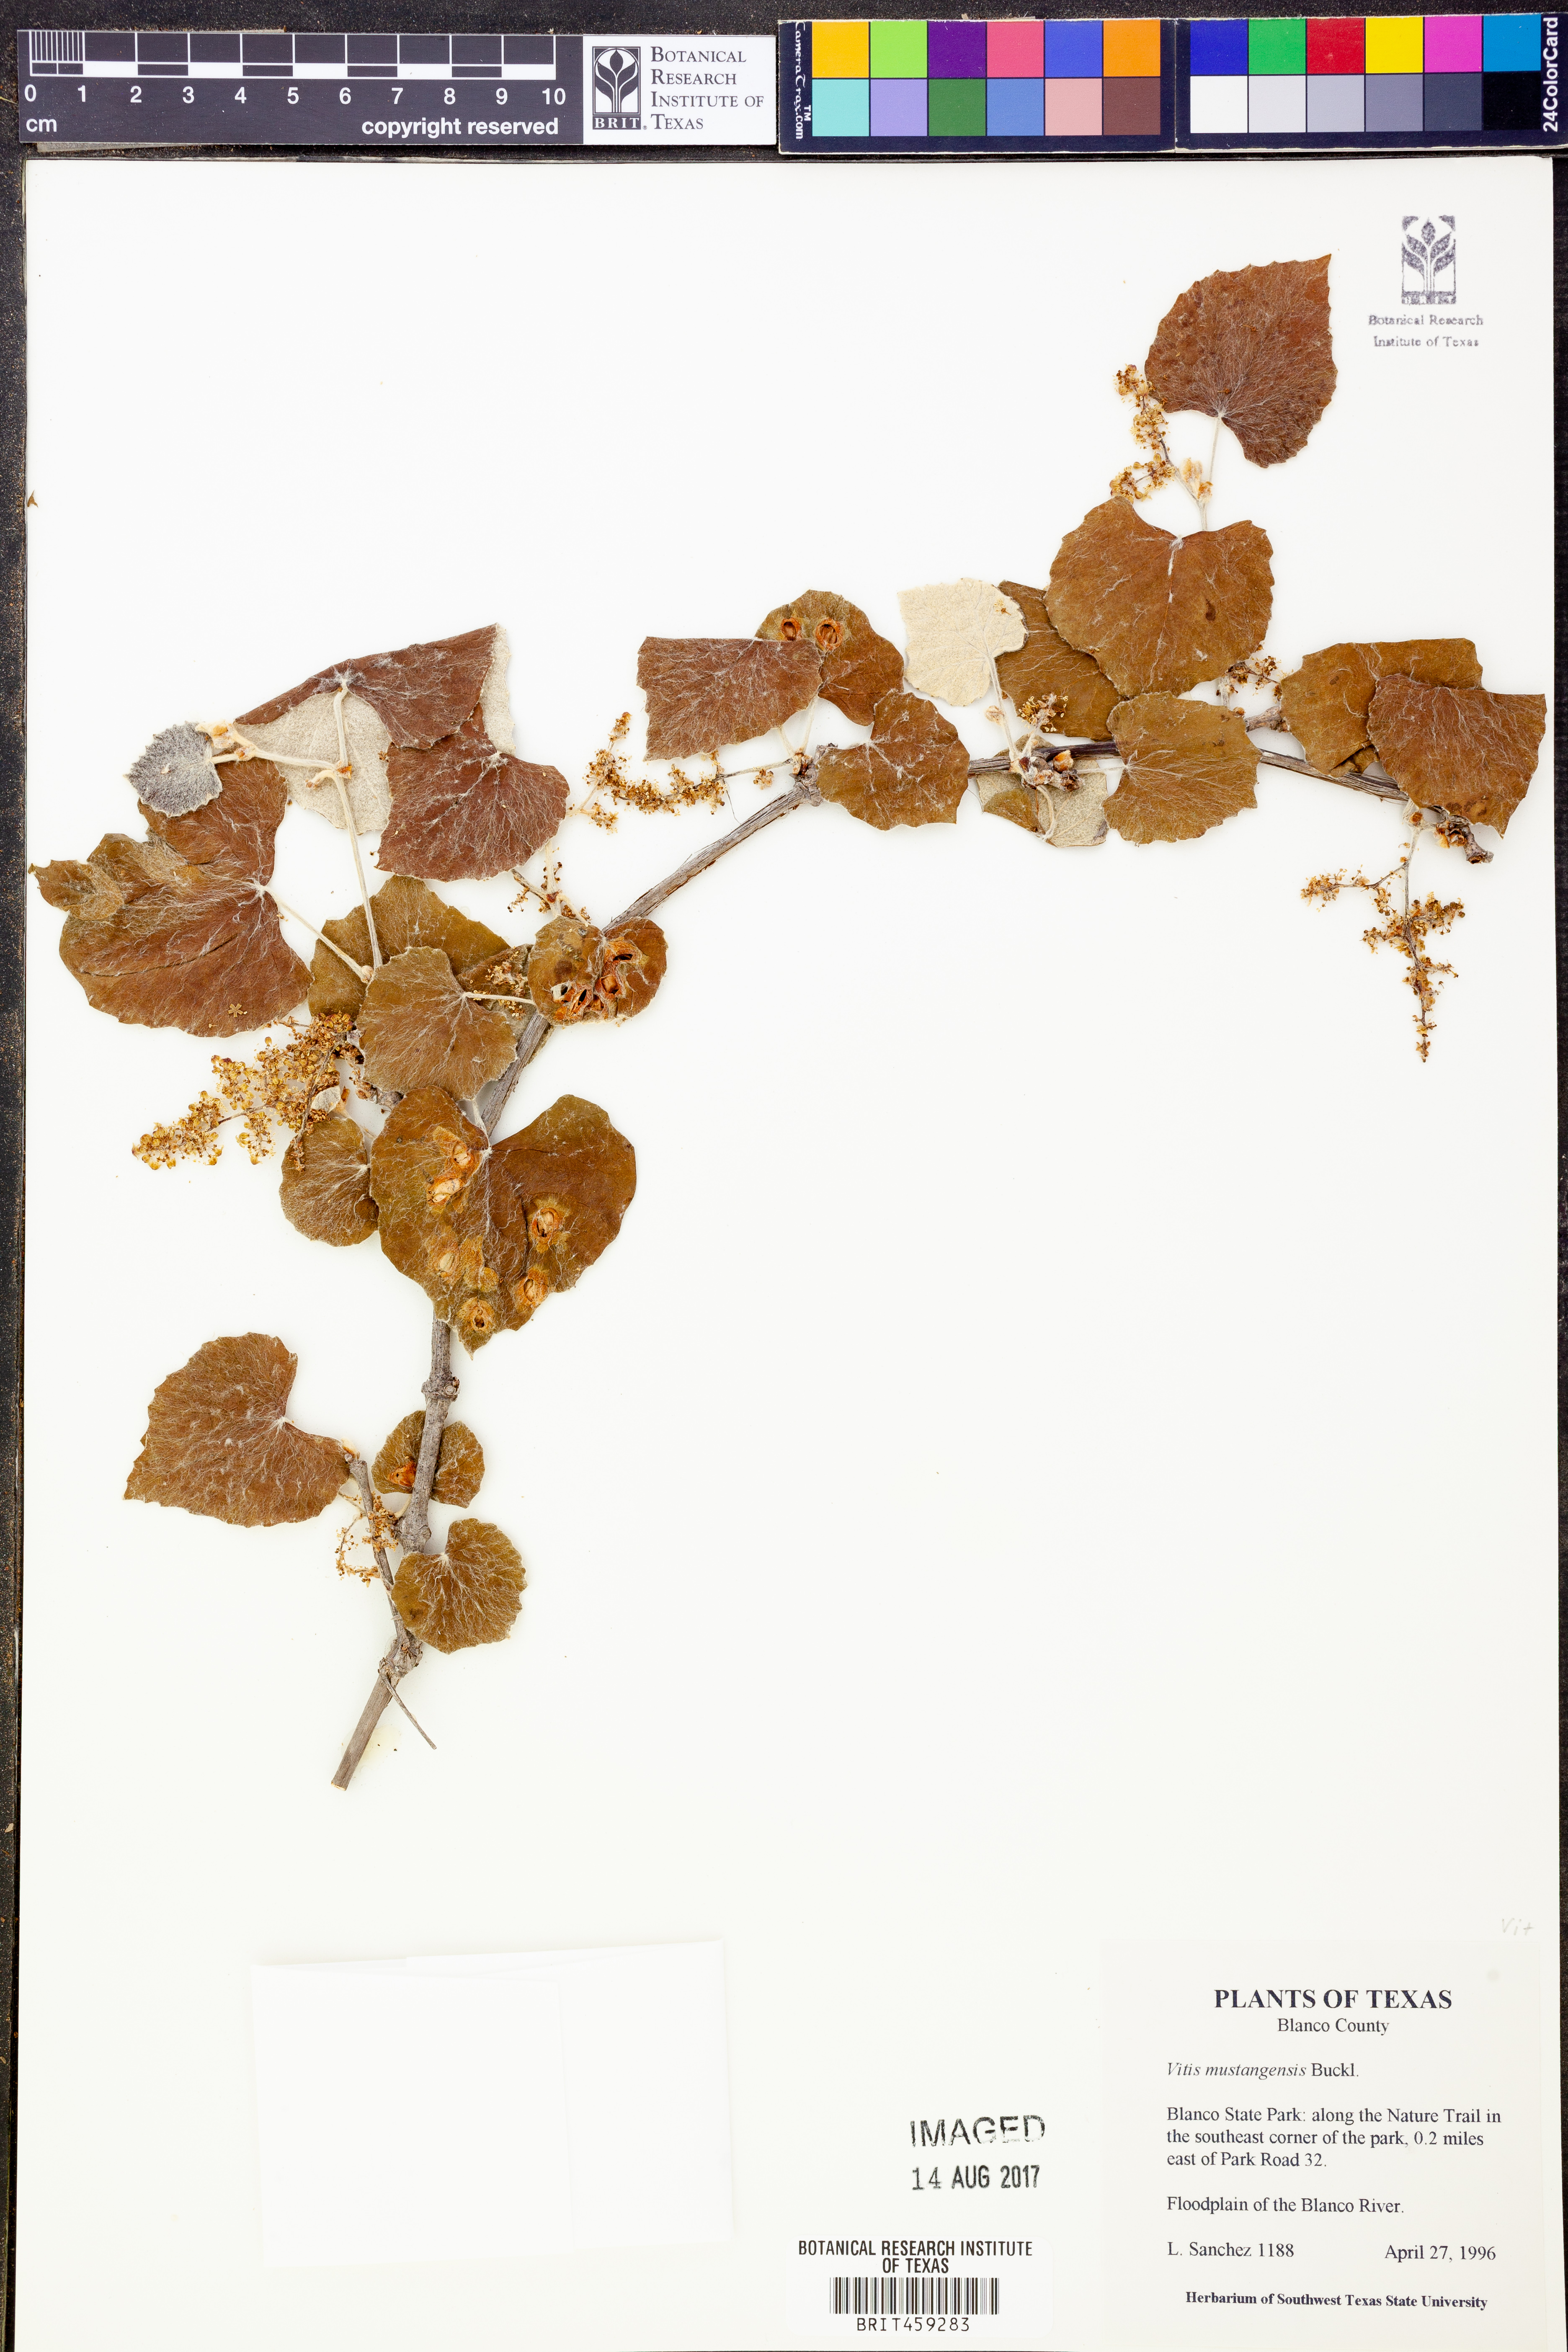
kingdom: Plantae
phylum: Tracheophyta
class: Magnoliopsida
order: Vitales
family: Vitaceae
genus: Vitis
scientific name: Vitis mustangensis
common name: Mustang grape
